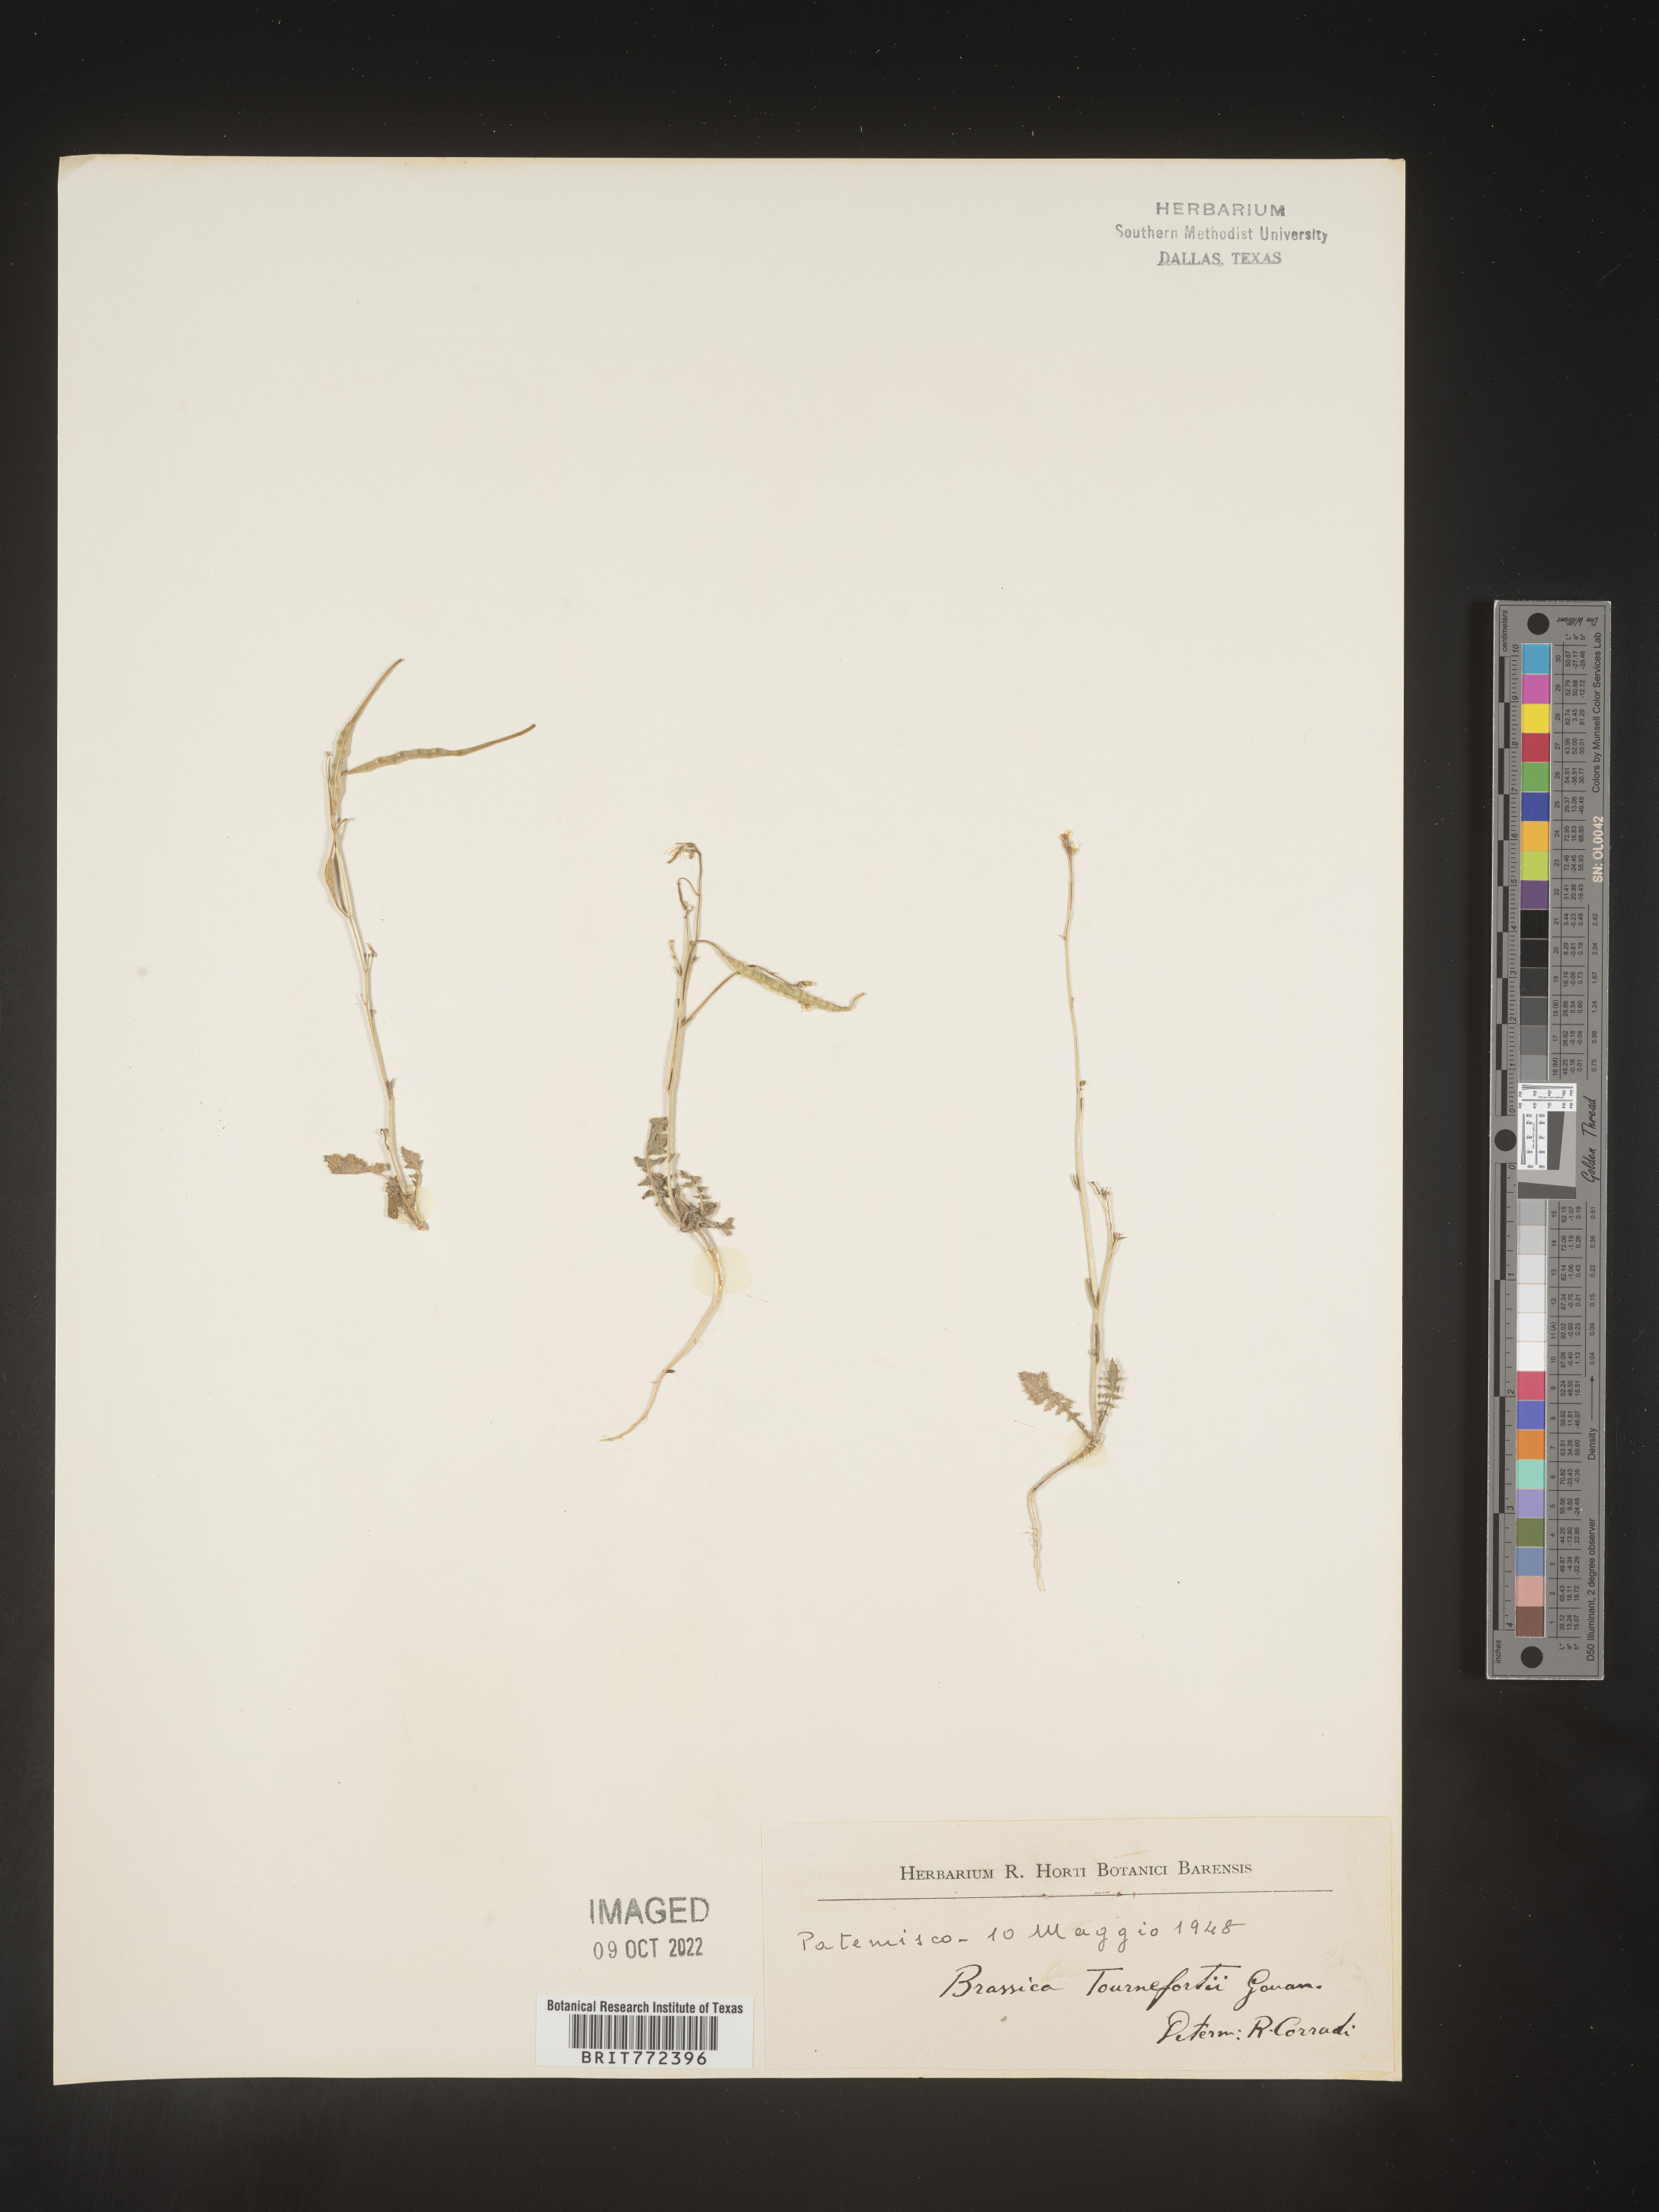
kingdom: Plantae
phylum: Tracheophyta
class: Magnoliopsida
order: Brassicales
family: Brassicaceae
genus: Brassica
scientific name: Brassica
